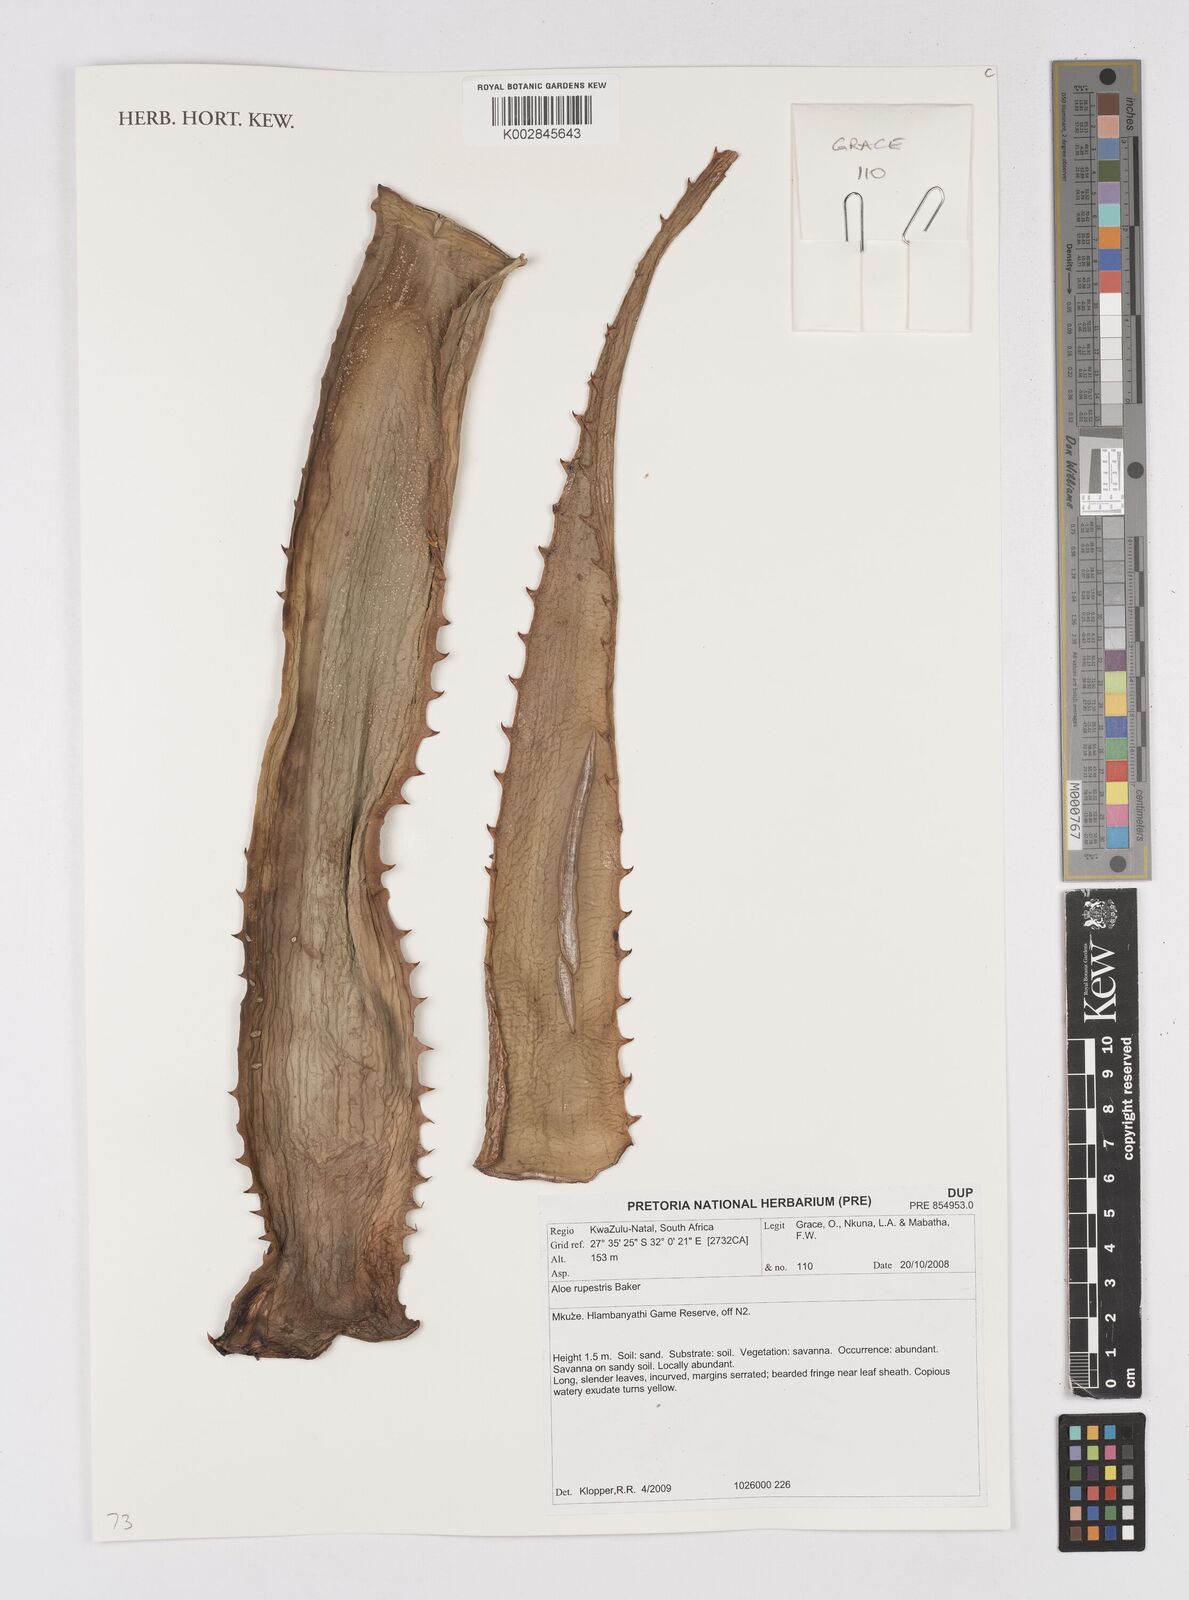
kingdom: Plantae
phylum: Tracheophyta
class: Liliopsida
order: Asparagales
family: Asphodelaceae
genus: Aloe
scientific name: Aloe rupestris
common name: Bottle-brush aloe
